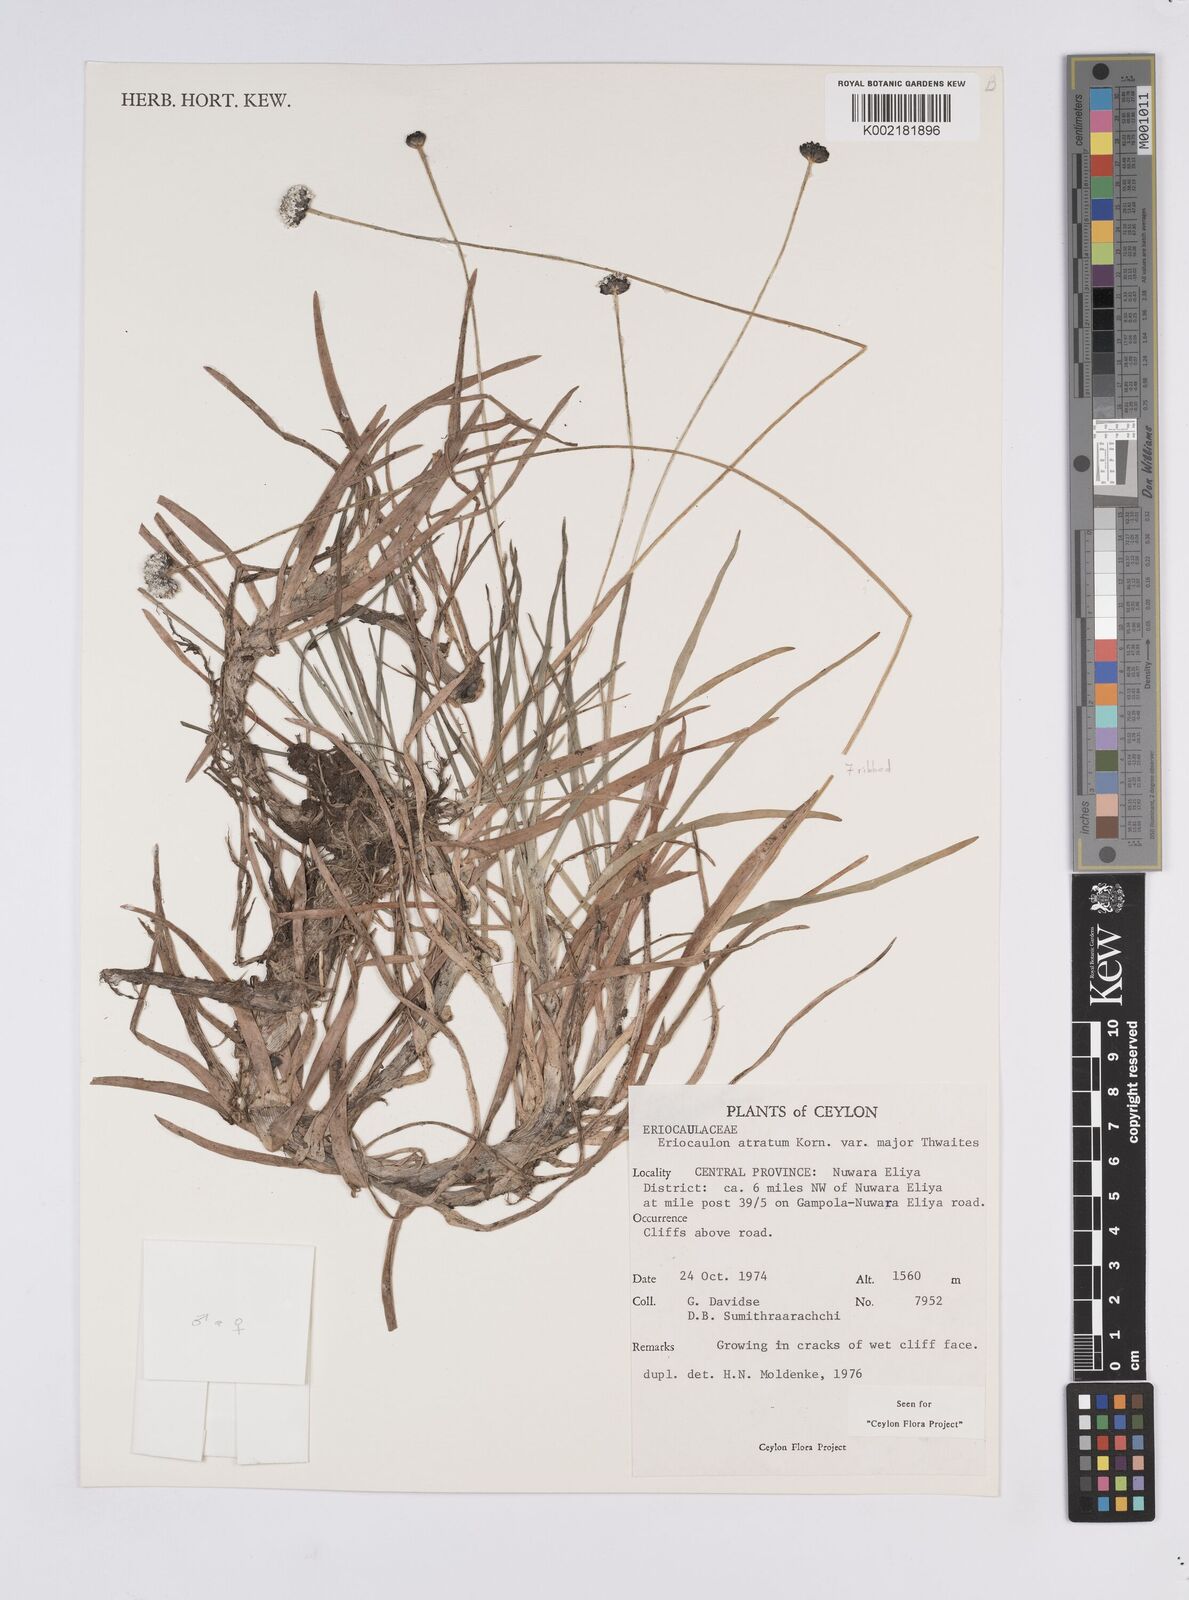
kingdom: Plantae
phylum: Tracheophyta
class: Liliopsida
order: Poales
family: Eriocaulaceae
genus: Eriocaulon
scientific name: Eriocaulon philippo-coburgii
